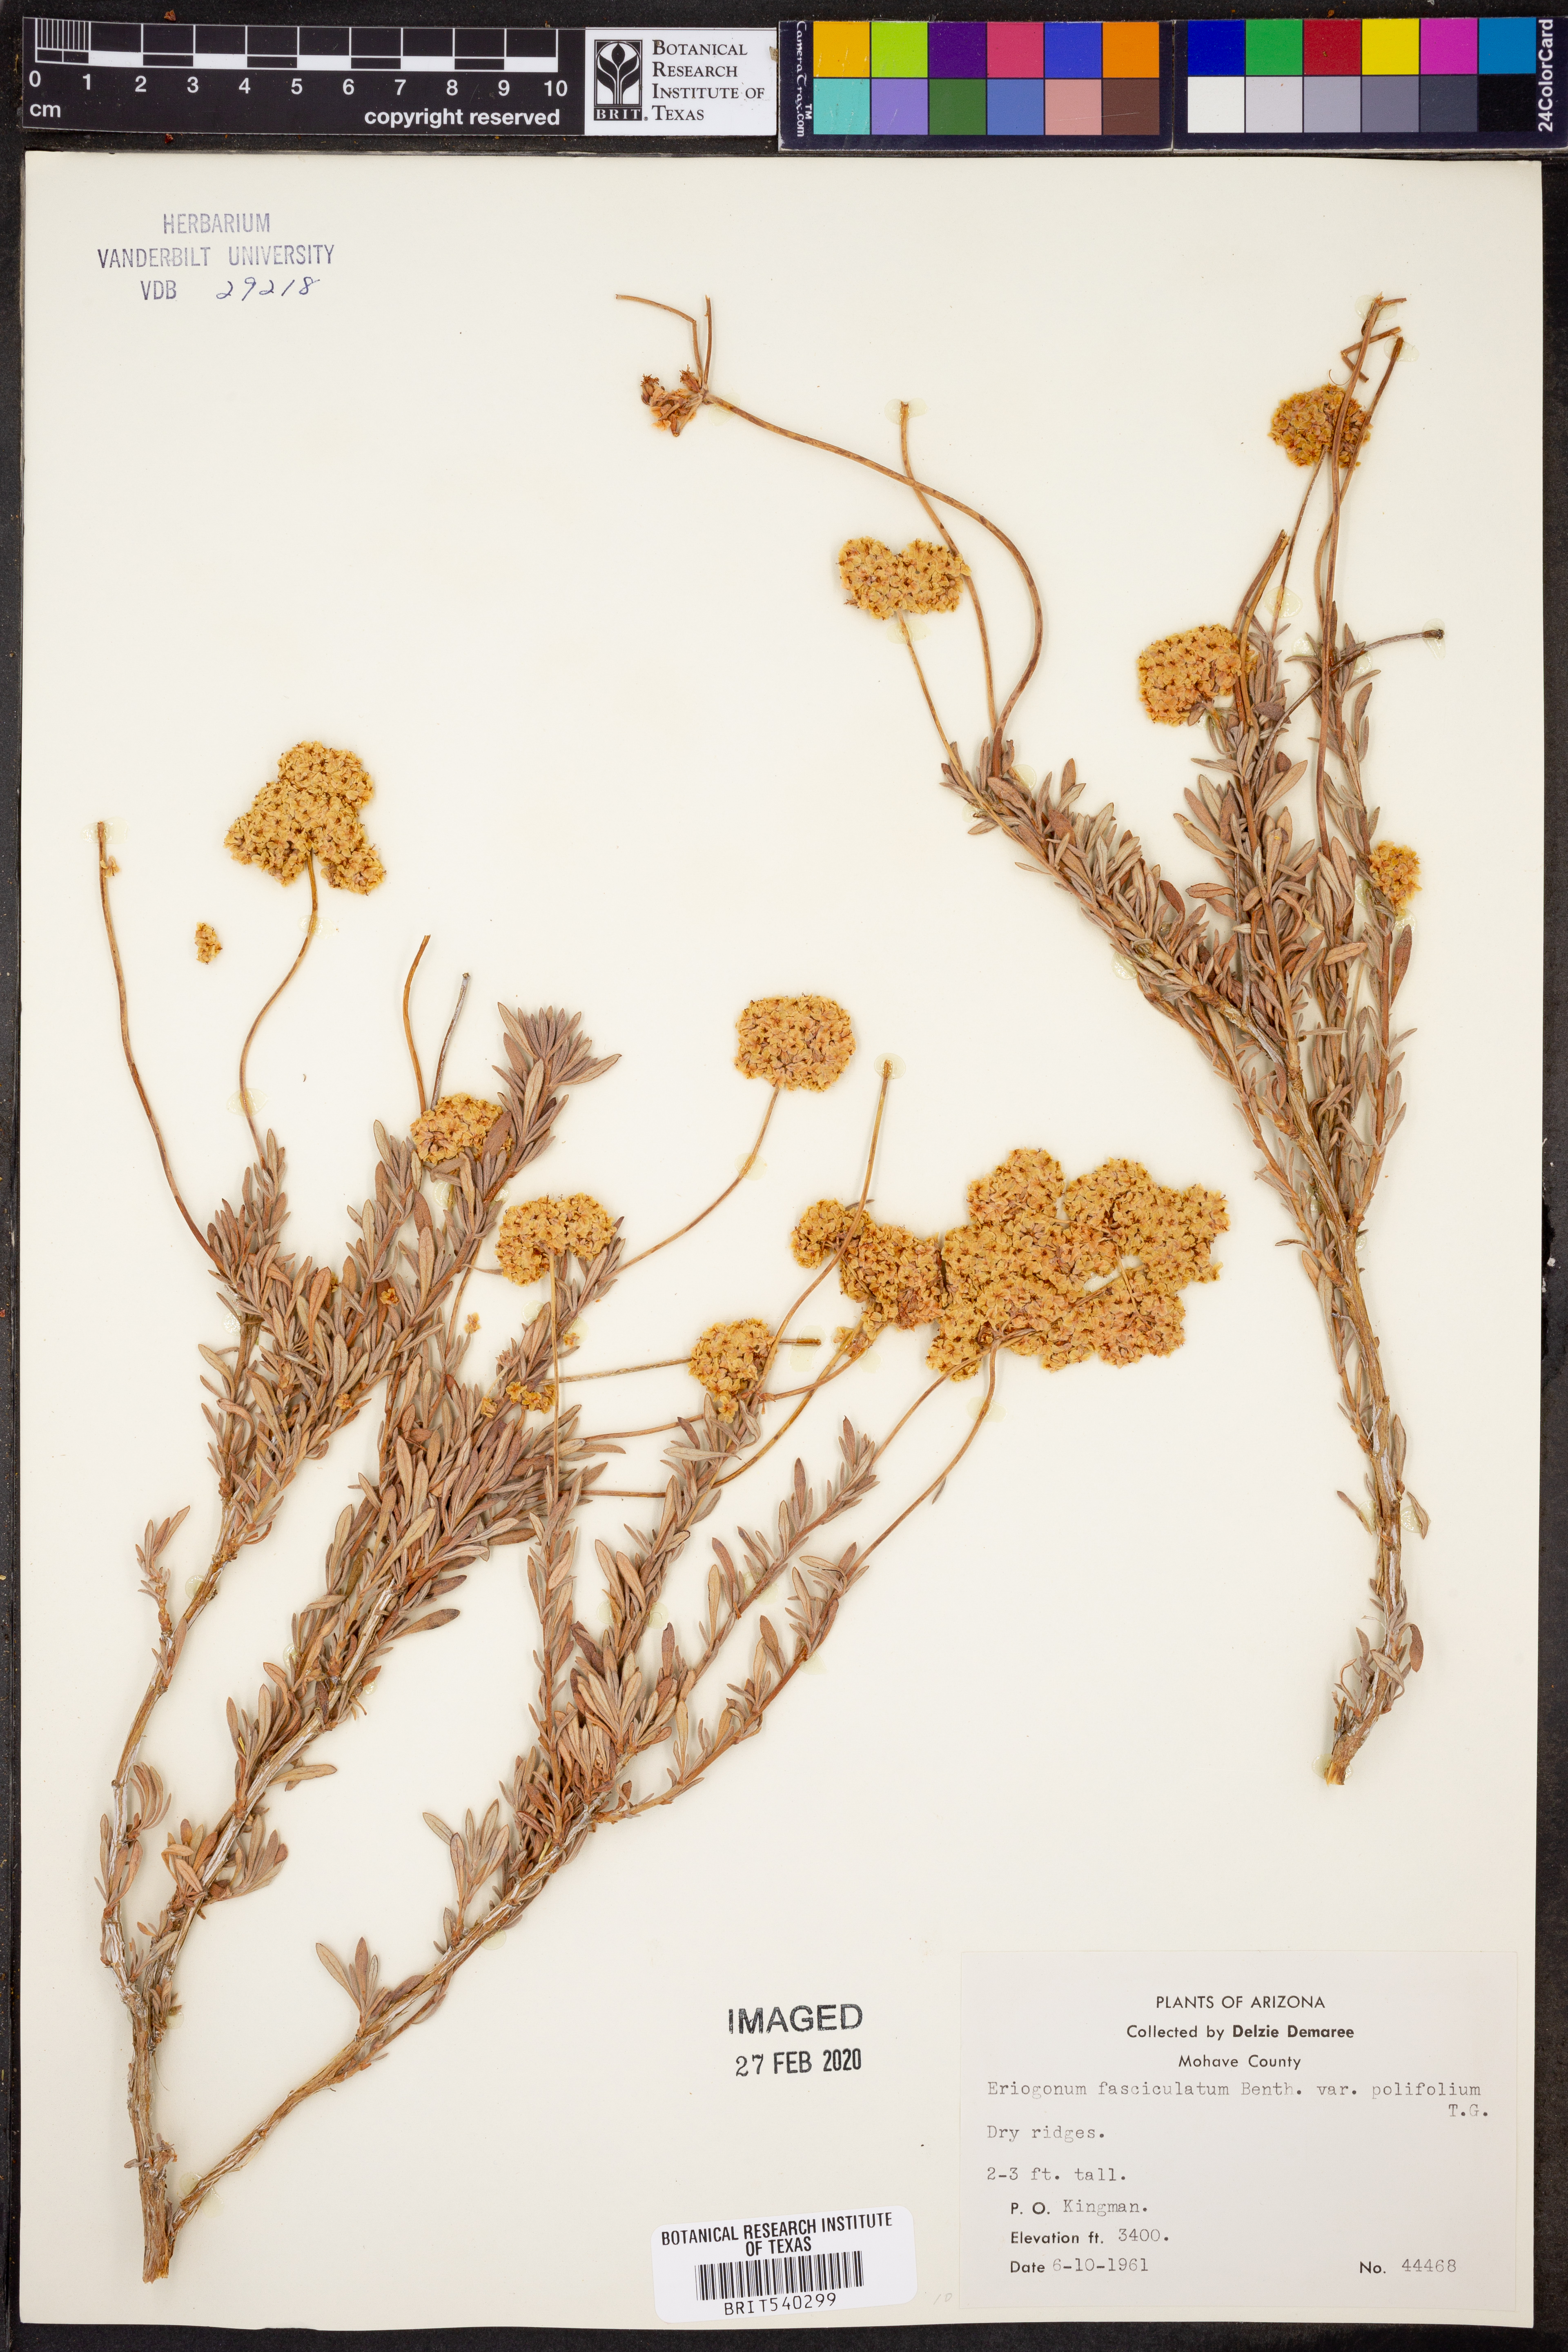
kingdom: Plantae
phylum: Tracheophyta
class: Magnoliopsida
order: Caryophyllales
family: Polygonaceae
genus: Eriogonum
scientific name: Eriogonum fasciculatum
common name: California wild buckwheat
